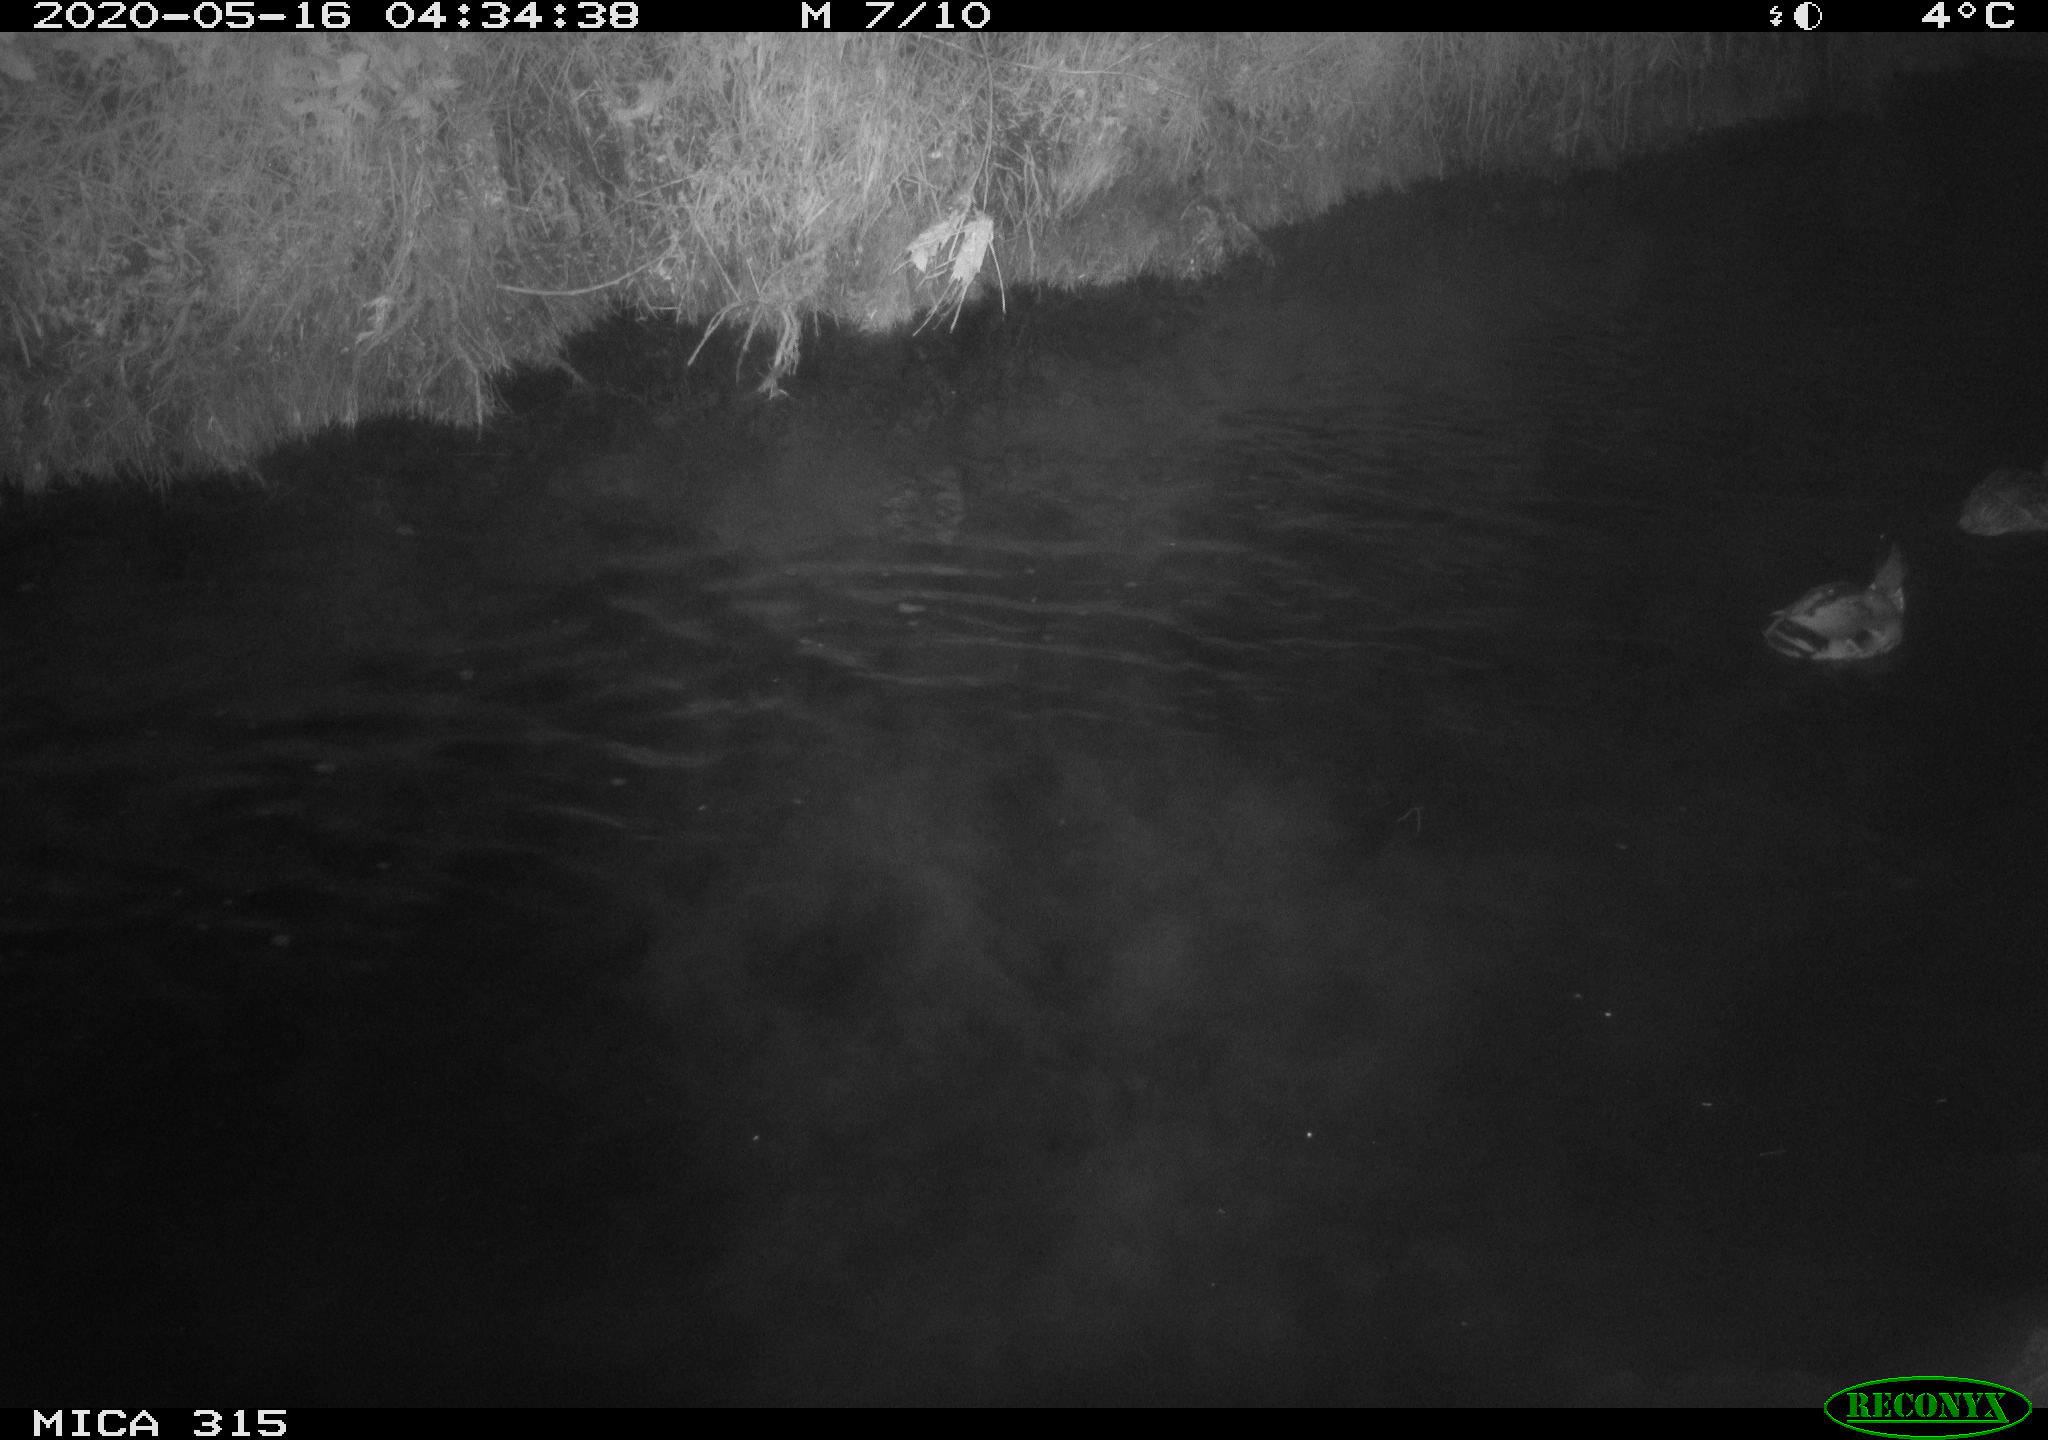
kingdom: Animalia
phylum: Chordata
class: Aves
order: Anseriformes
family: Anatidae
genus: Anas
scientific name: Anas platyrhynchos
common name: Mallard
